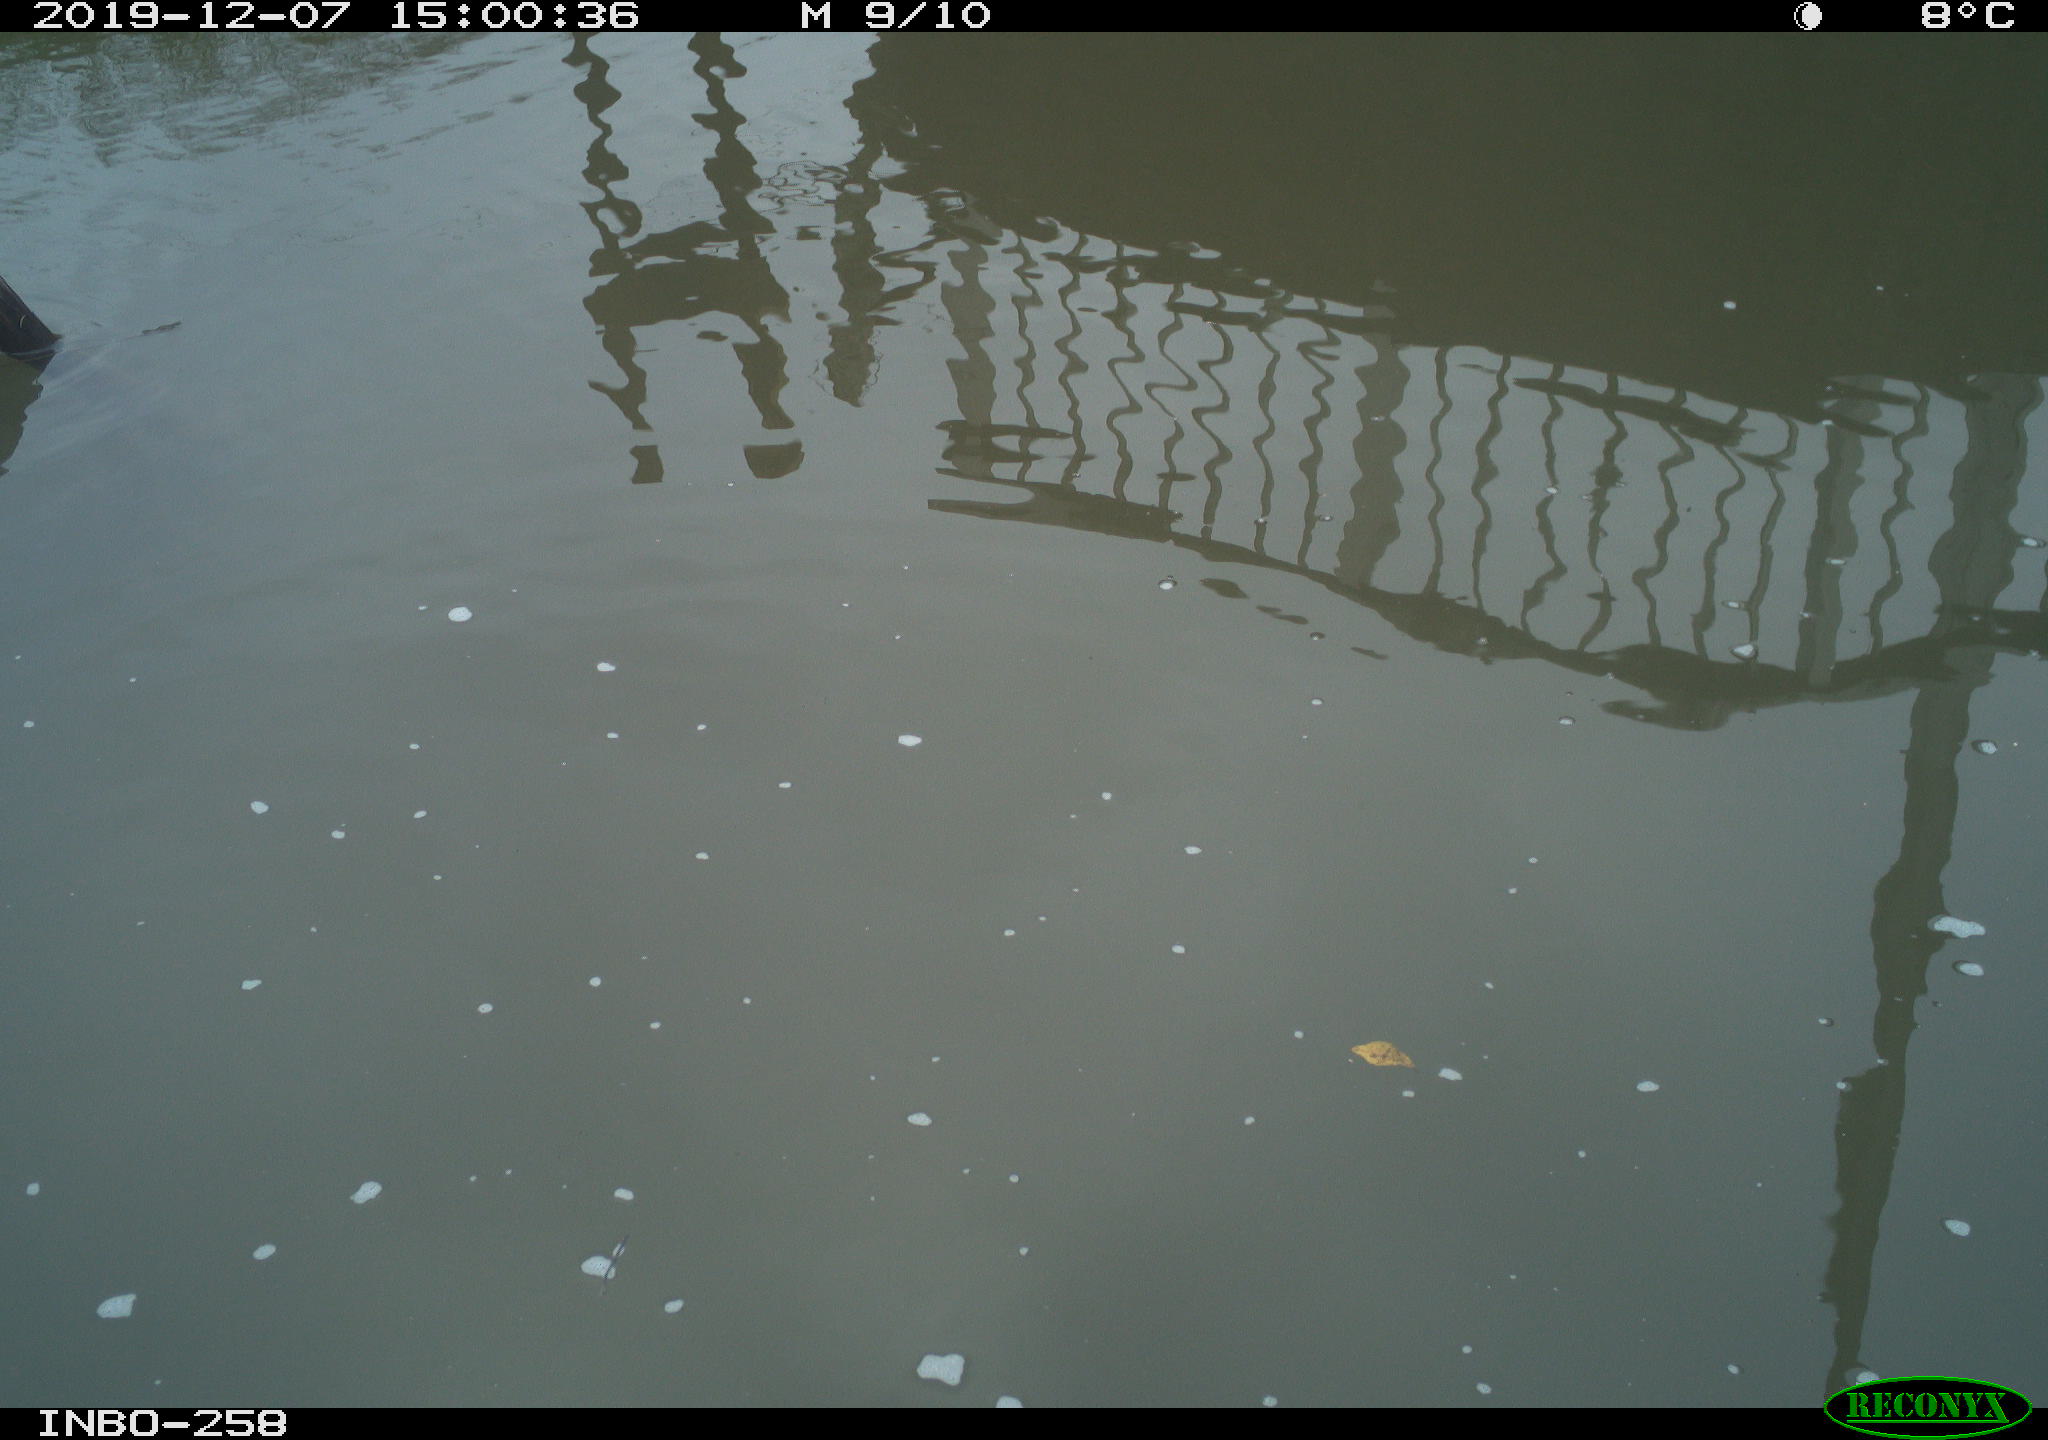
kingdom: Animalia
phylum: Chordata
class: Aves
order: Gruiformes
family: Rallidae
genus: Gallinula
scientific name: Gallinula chloropus
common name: Common moorhen
